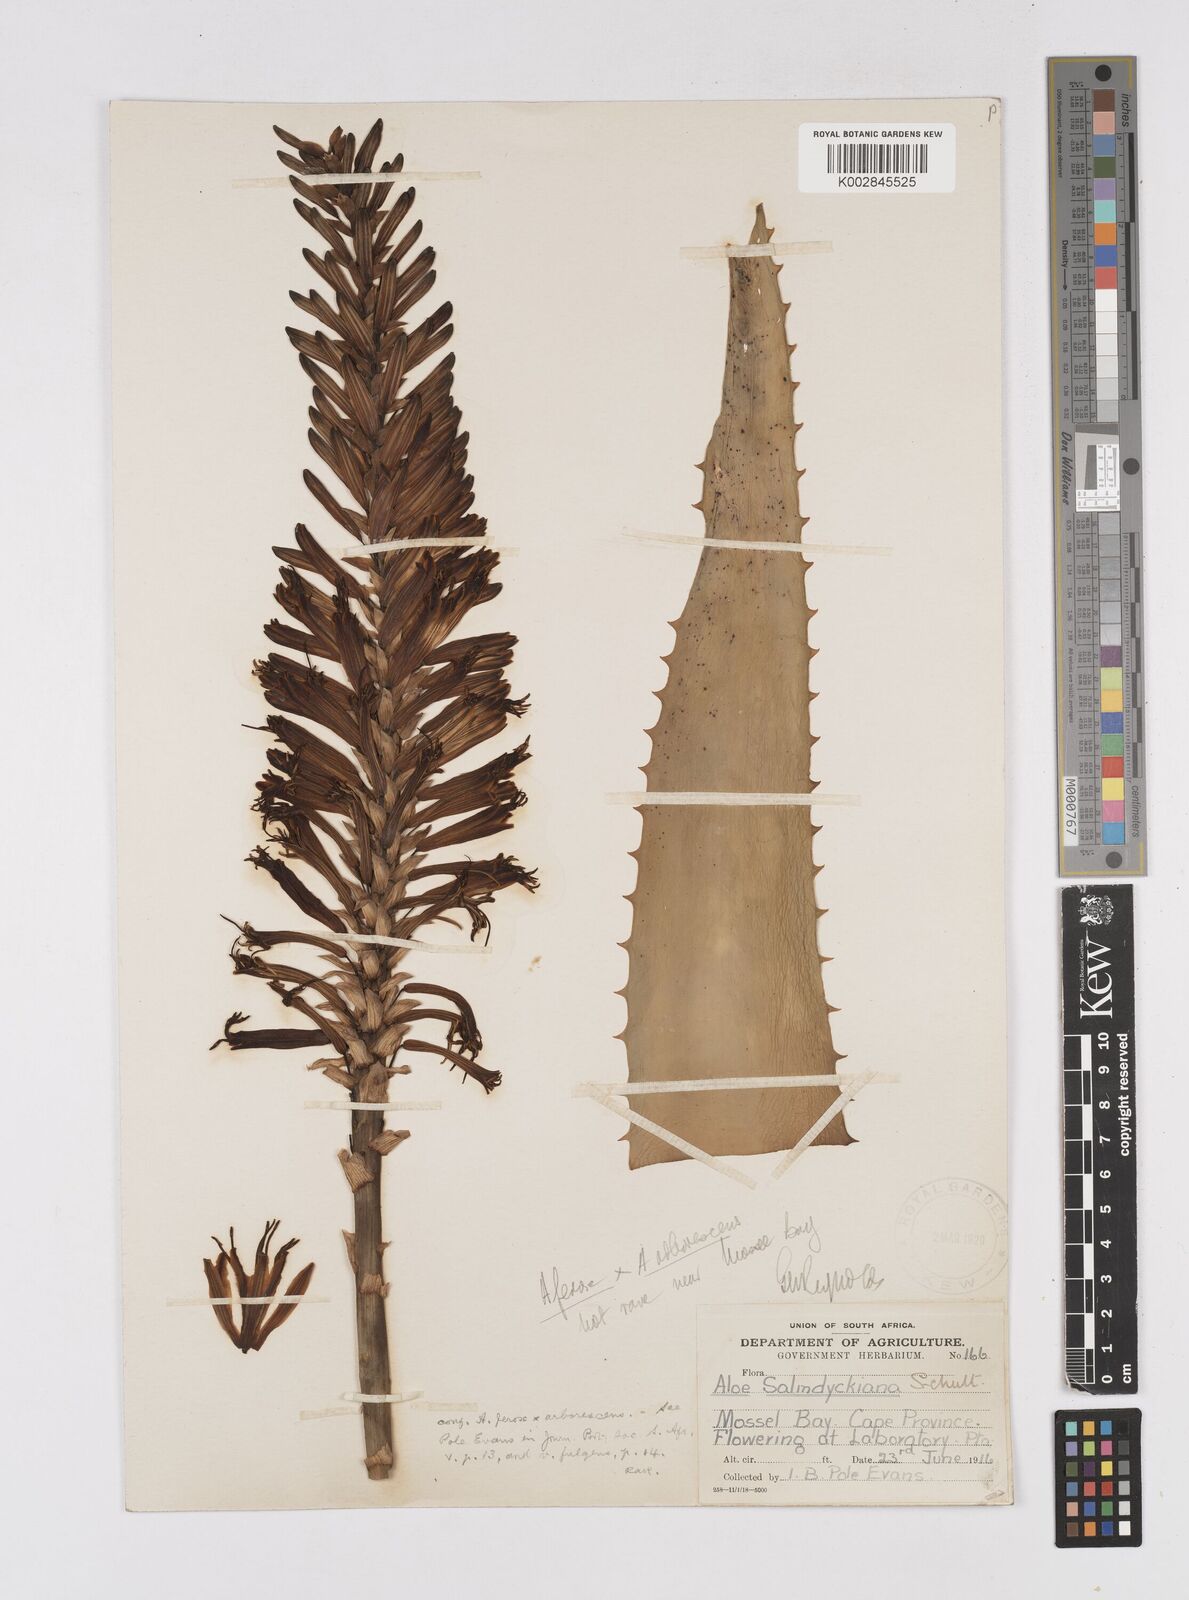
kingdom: Plantae
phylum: Tracheophyta
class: Liliopsida
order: Asparagales
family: Asphodelaceae
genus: Aloe
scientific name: Aloe arborescens
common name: Candelabra aloe
